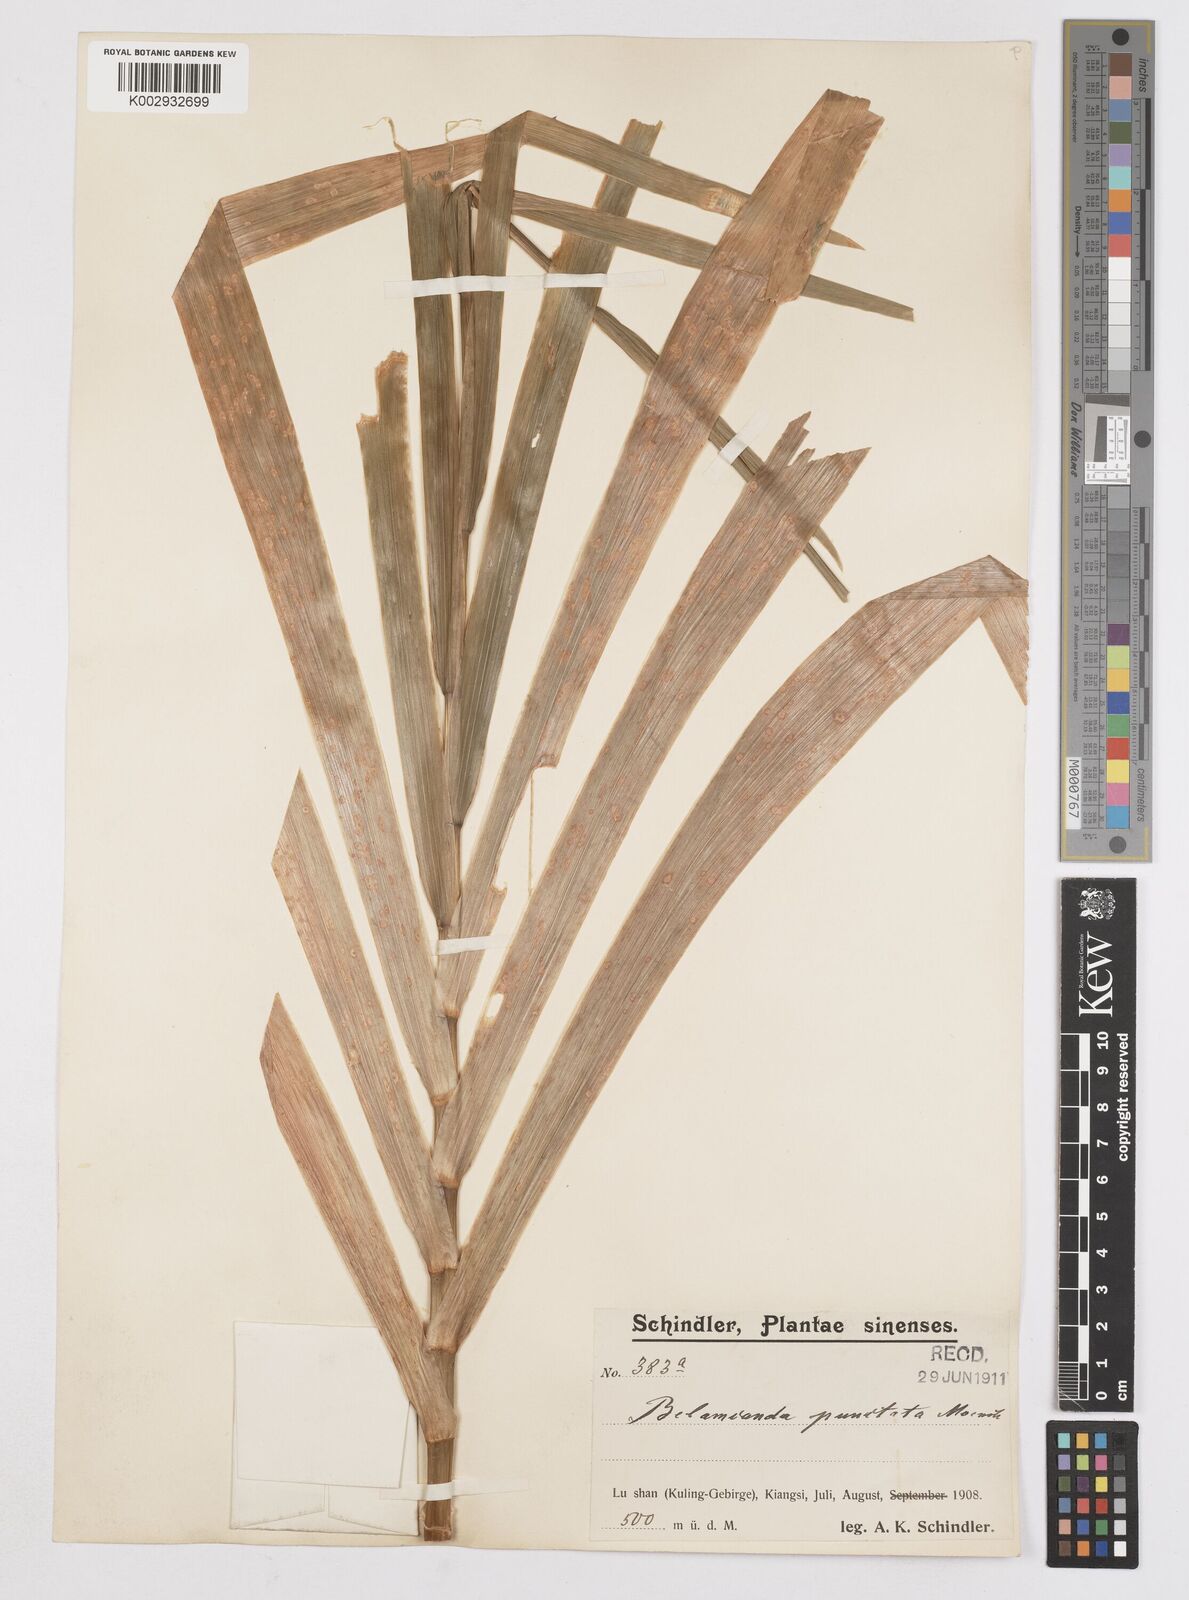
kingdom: Plantae
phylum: Tracheophyta
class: Liliopsida
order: Asparagales
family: Iridaceae
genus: Iris
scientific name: Iris
